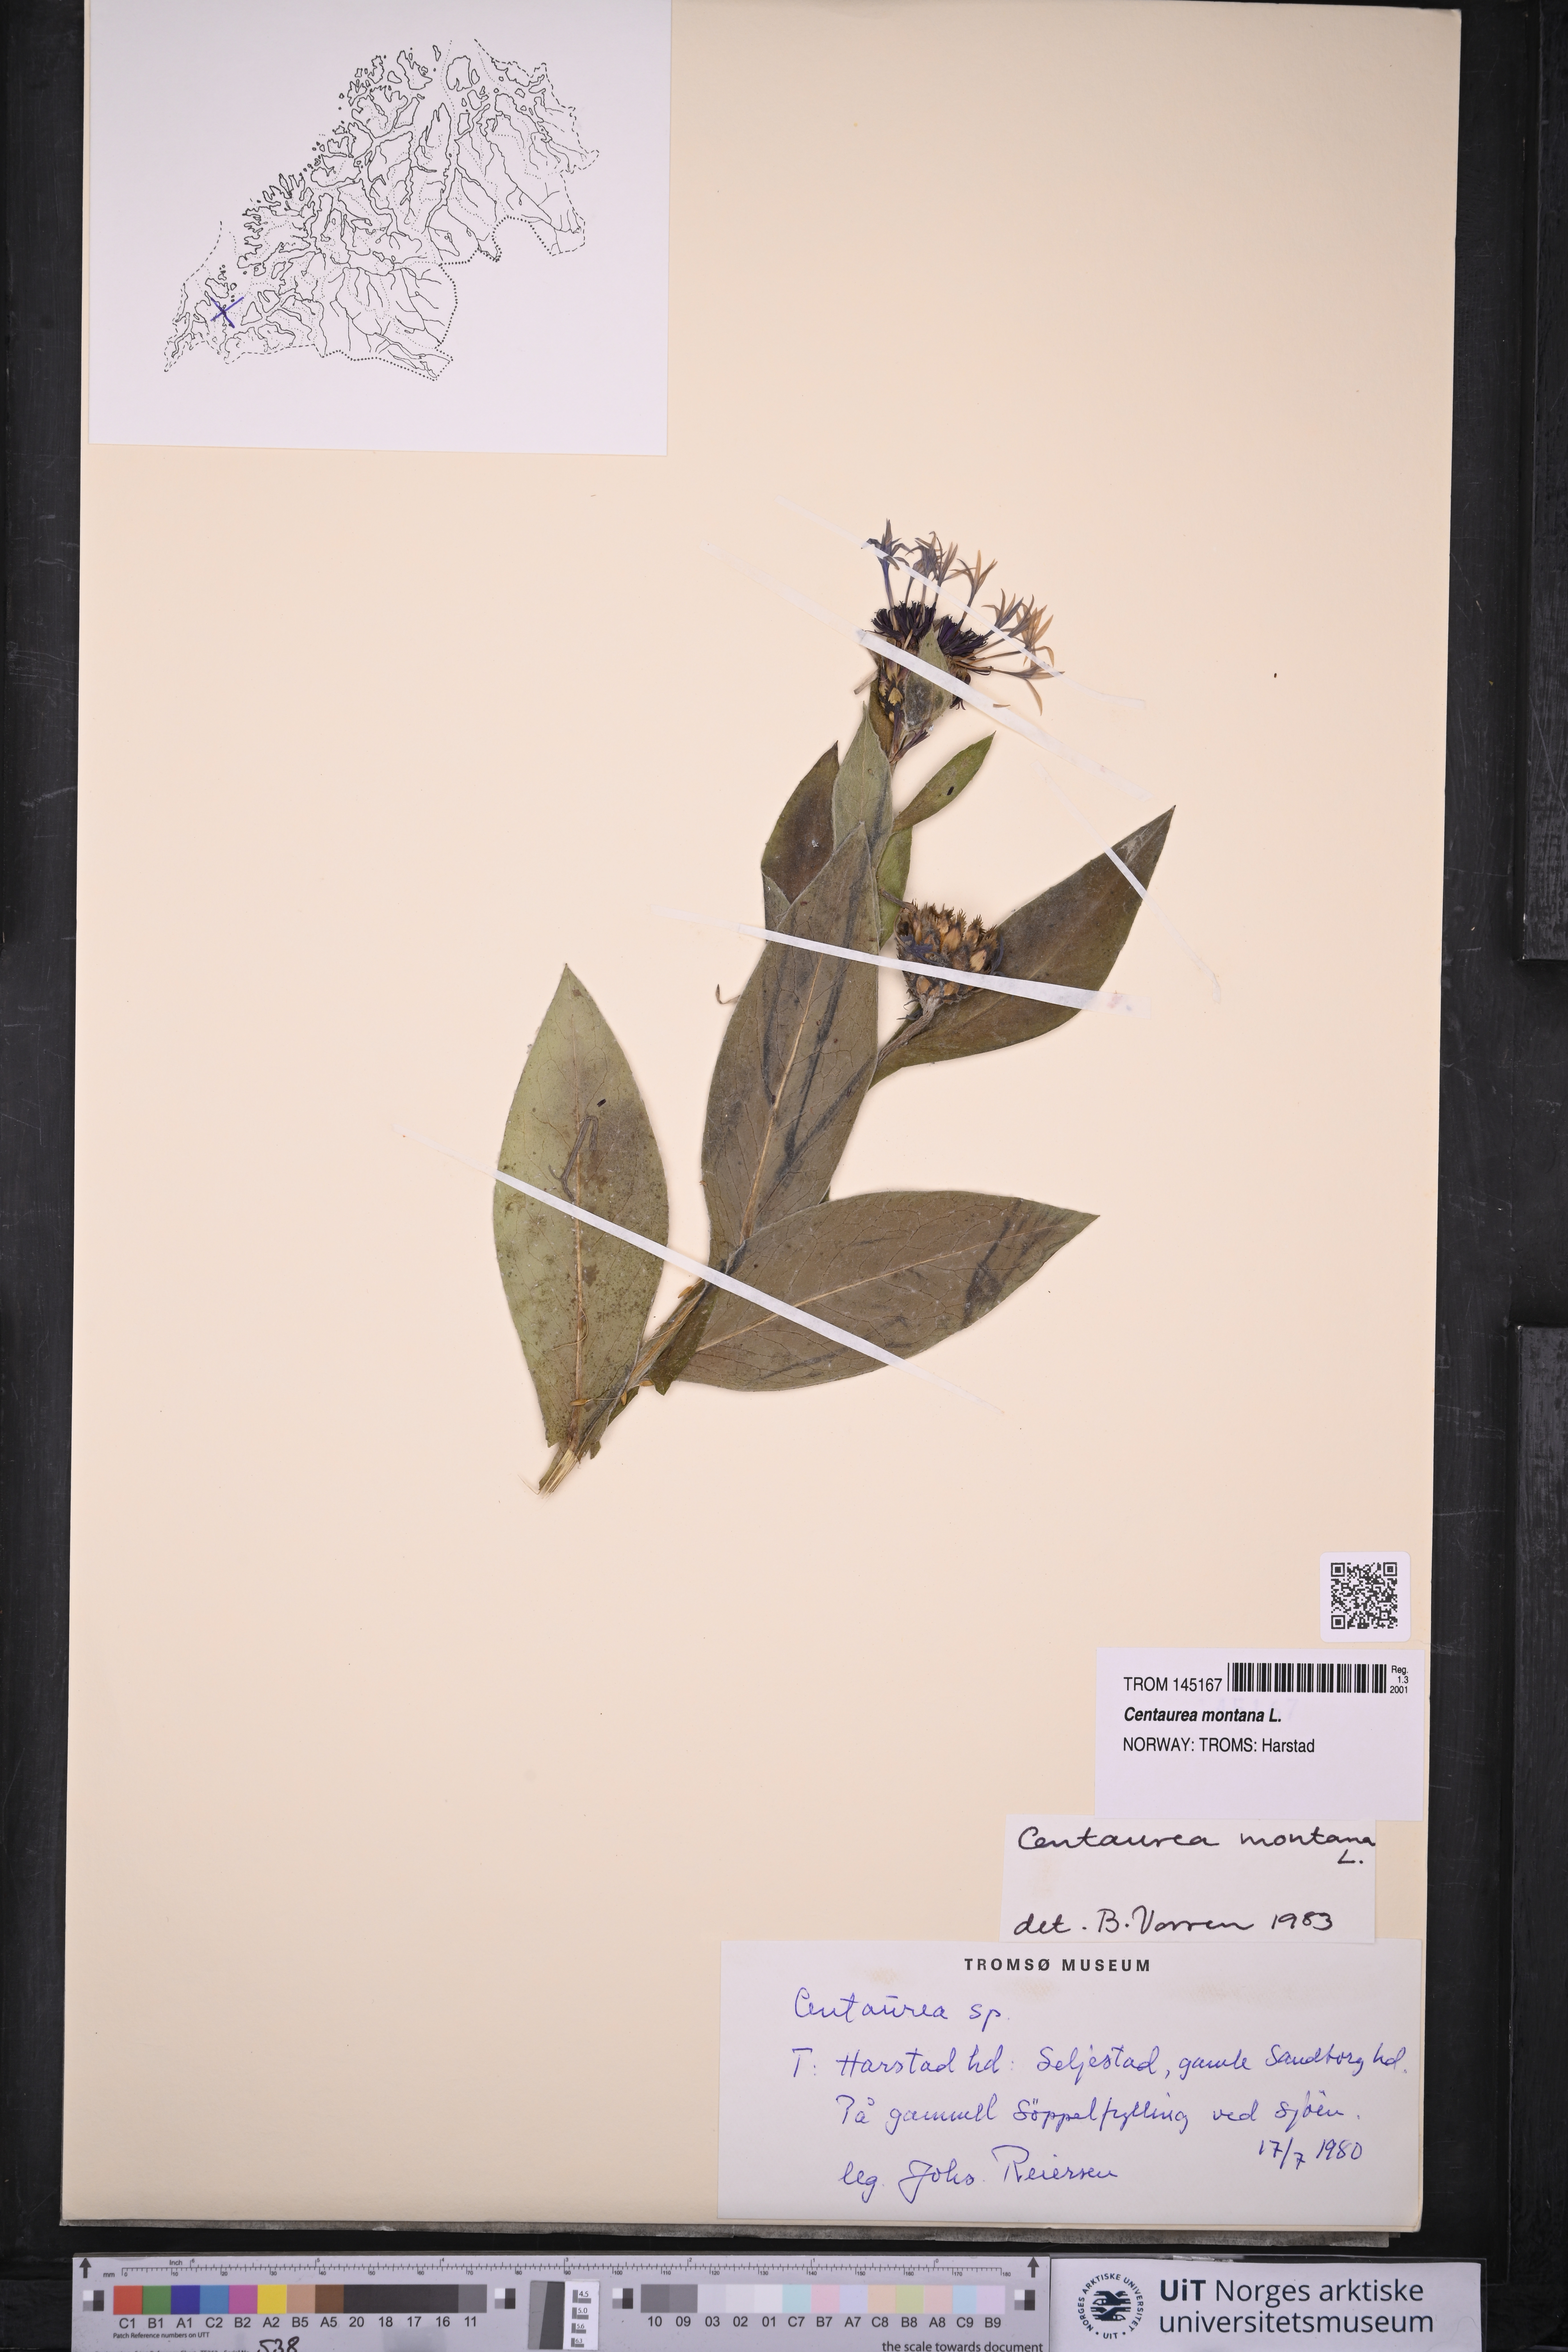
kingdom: Plantae
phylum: Tracheophyta
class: Magnoliopsida
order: Asterales
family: Asteraceae
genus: Centaurea
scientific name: Centaurea montana
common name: Perennial cornflower
